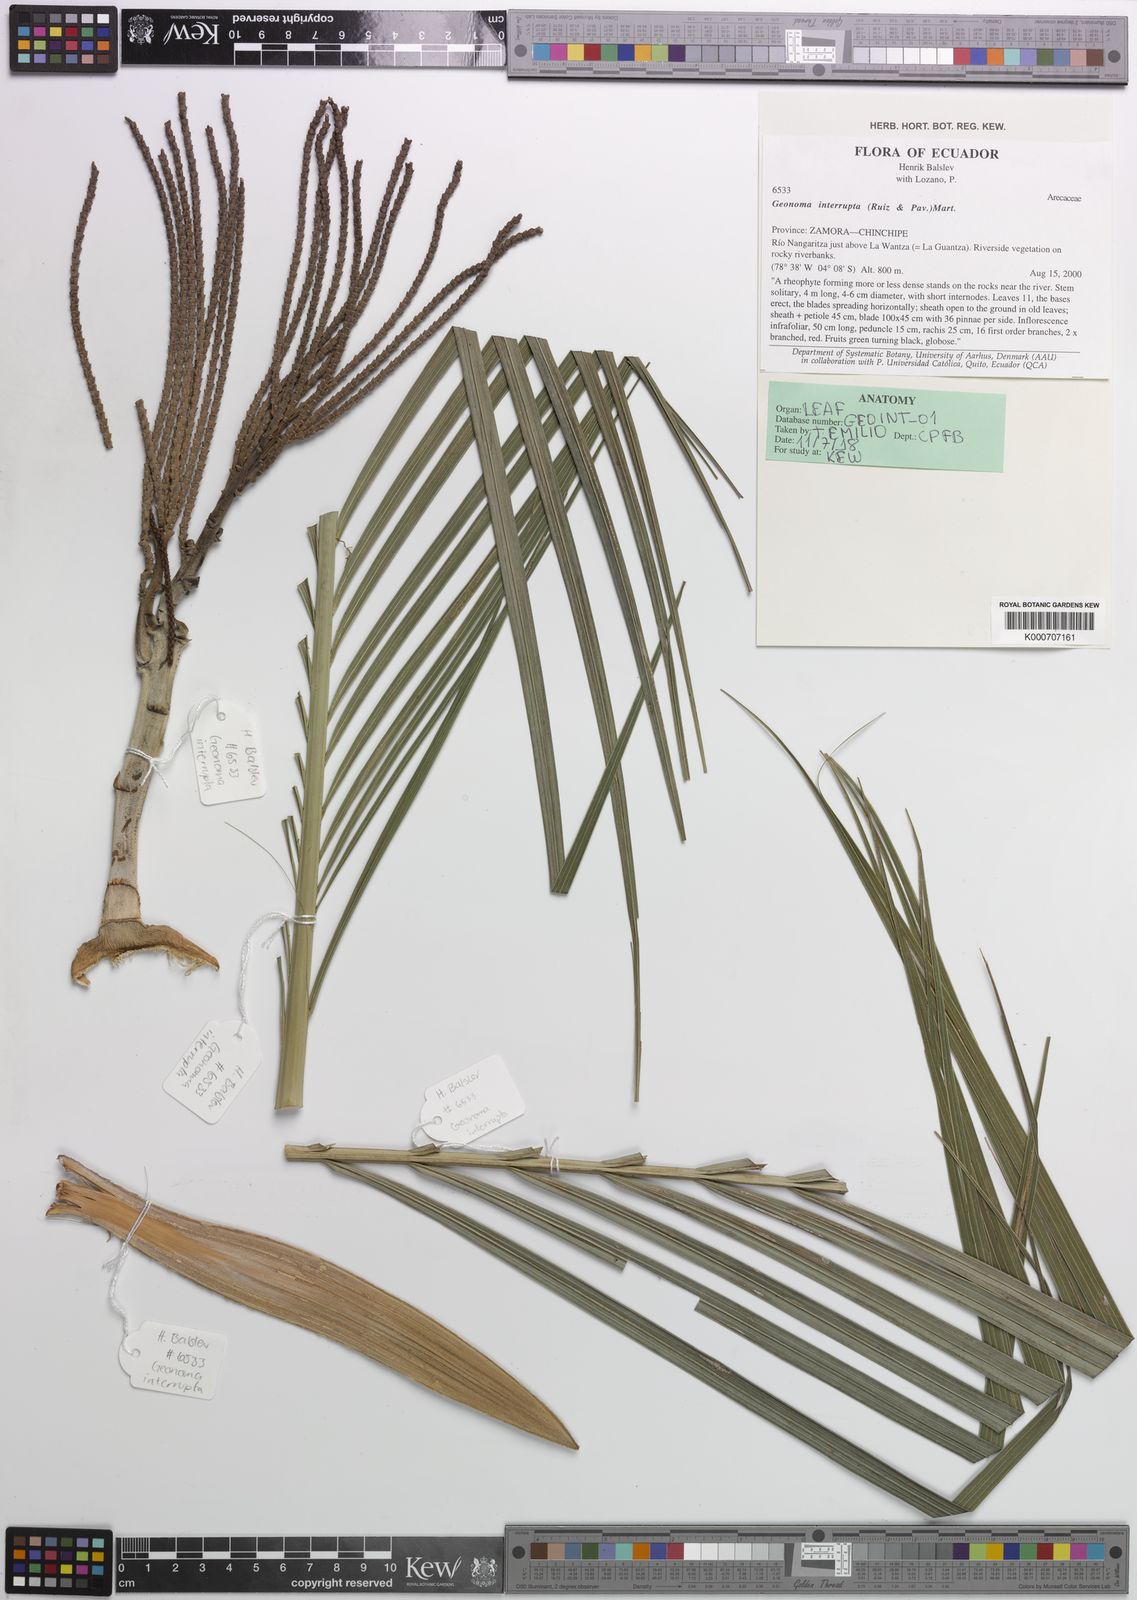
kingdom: Plantae
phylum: Tracheophyta
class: Liliopsida
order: Arecales
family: Arecaceae
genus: Geonoma
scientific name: Geonoma interrupta
